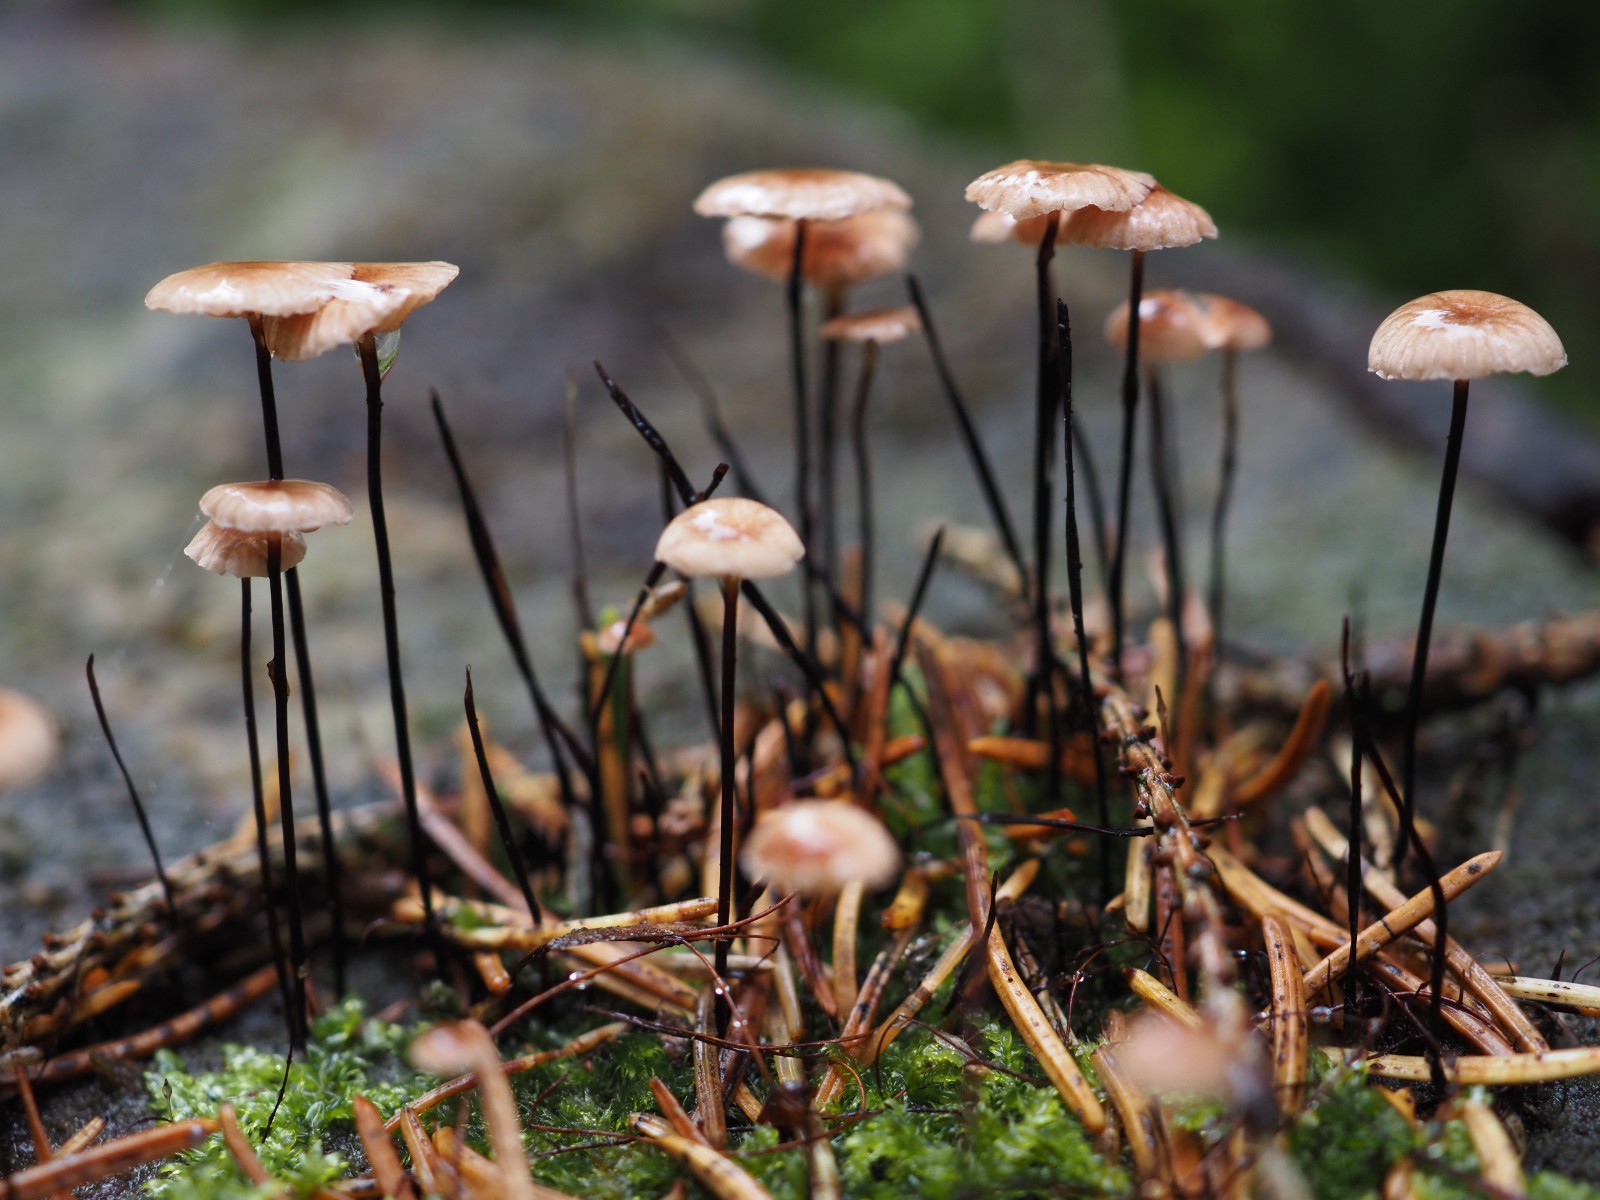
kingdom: Fungi
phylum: Basidiomycota
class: Agaricomycetes
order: Agaricales
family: Omphalotaceae
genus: Gymnopus
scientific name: Gymnopus androsaceus
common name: trådstokket fladhat
